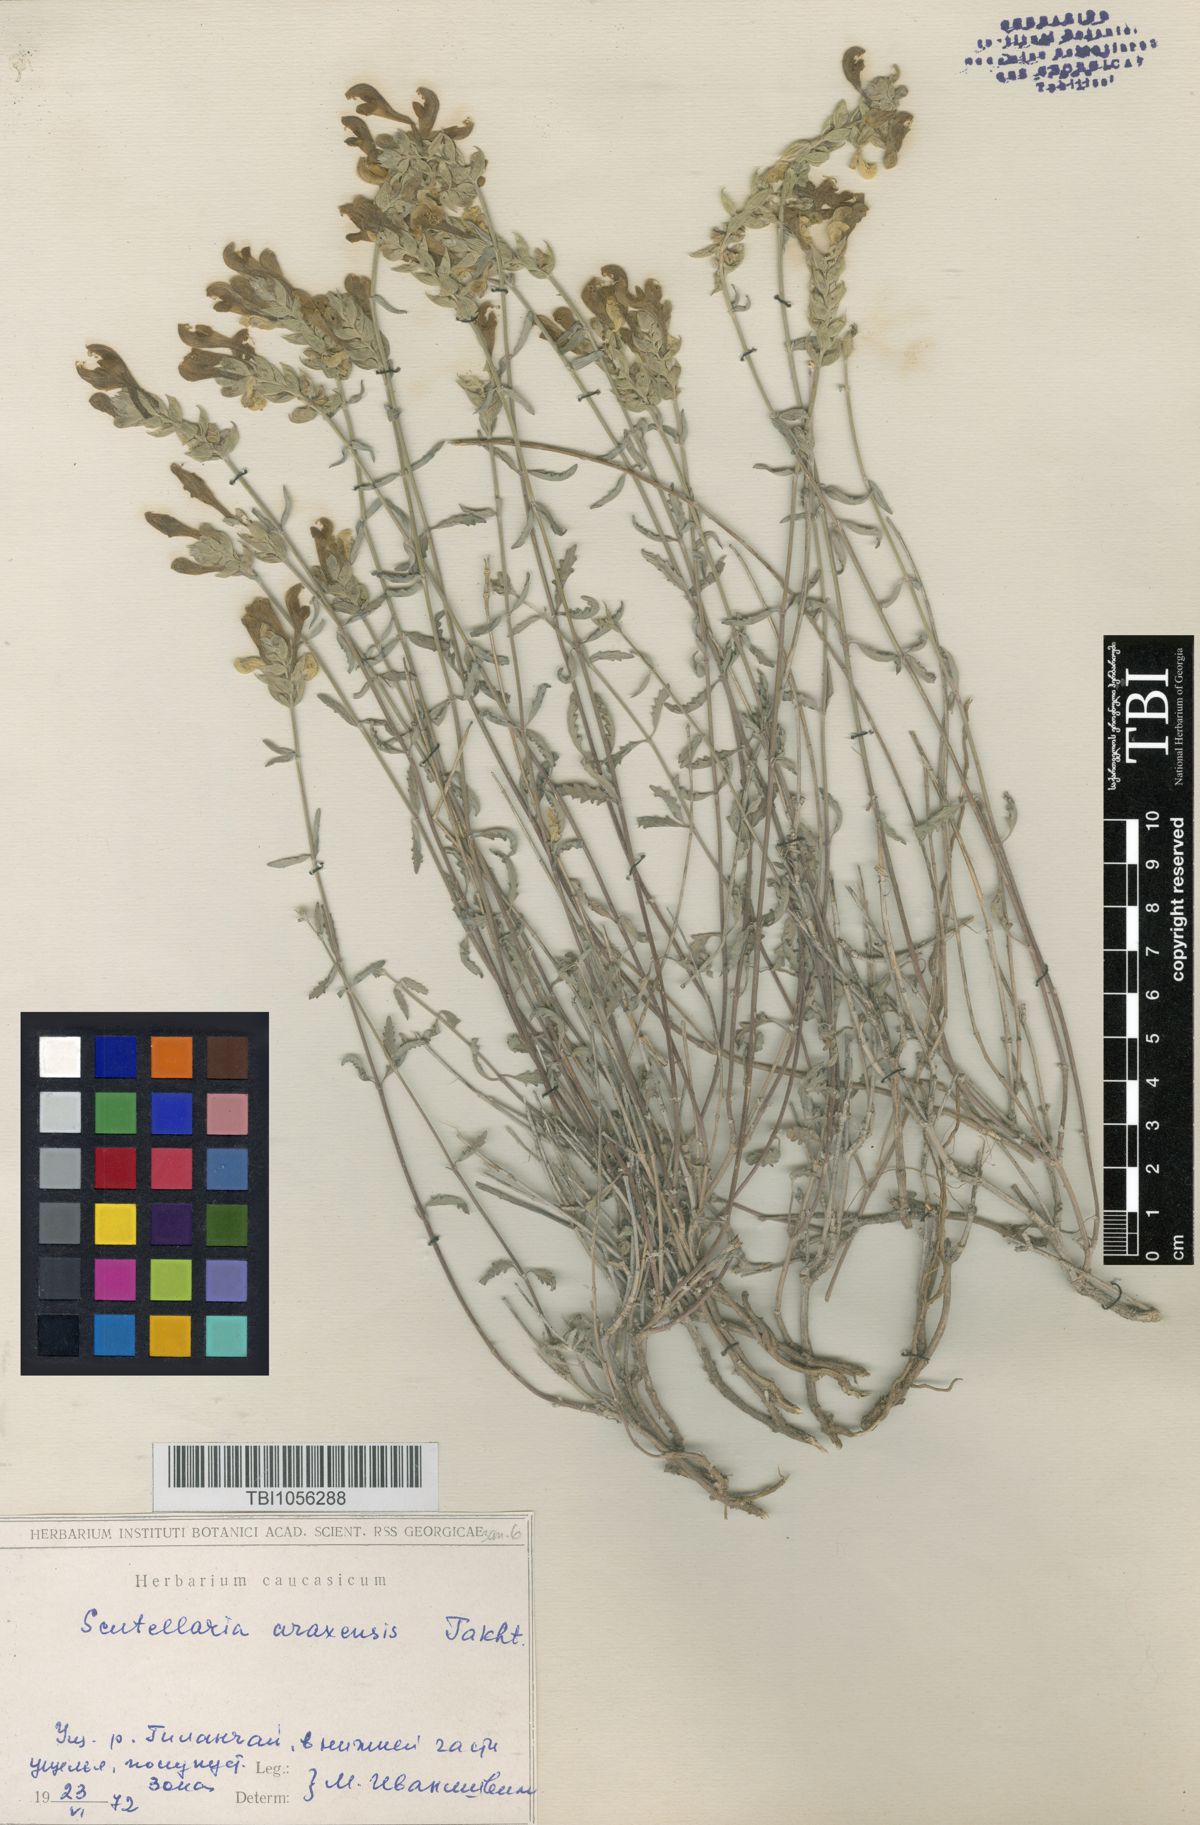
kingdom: Plantae
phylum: Tracheophyta
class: Magnoliopsida
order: Lamiales
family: Lamiaceae
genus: Scutellaria
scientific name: Scutellaria araxensis
